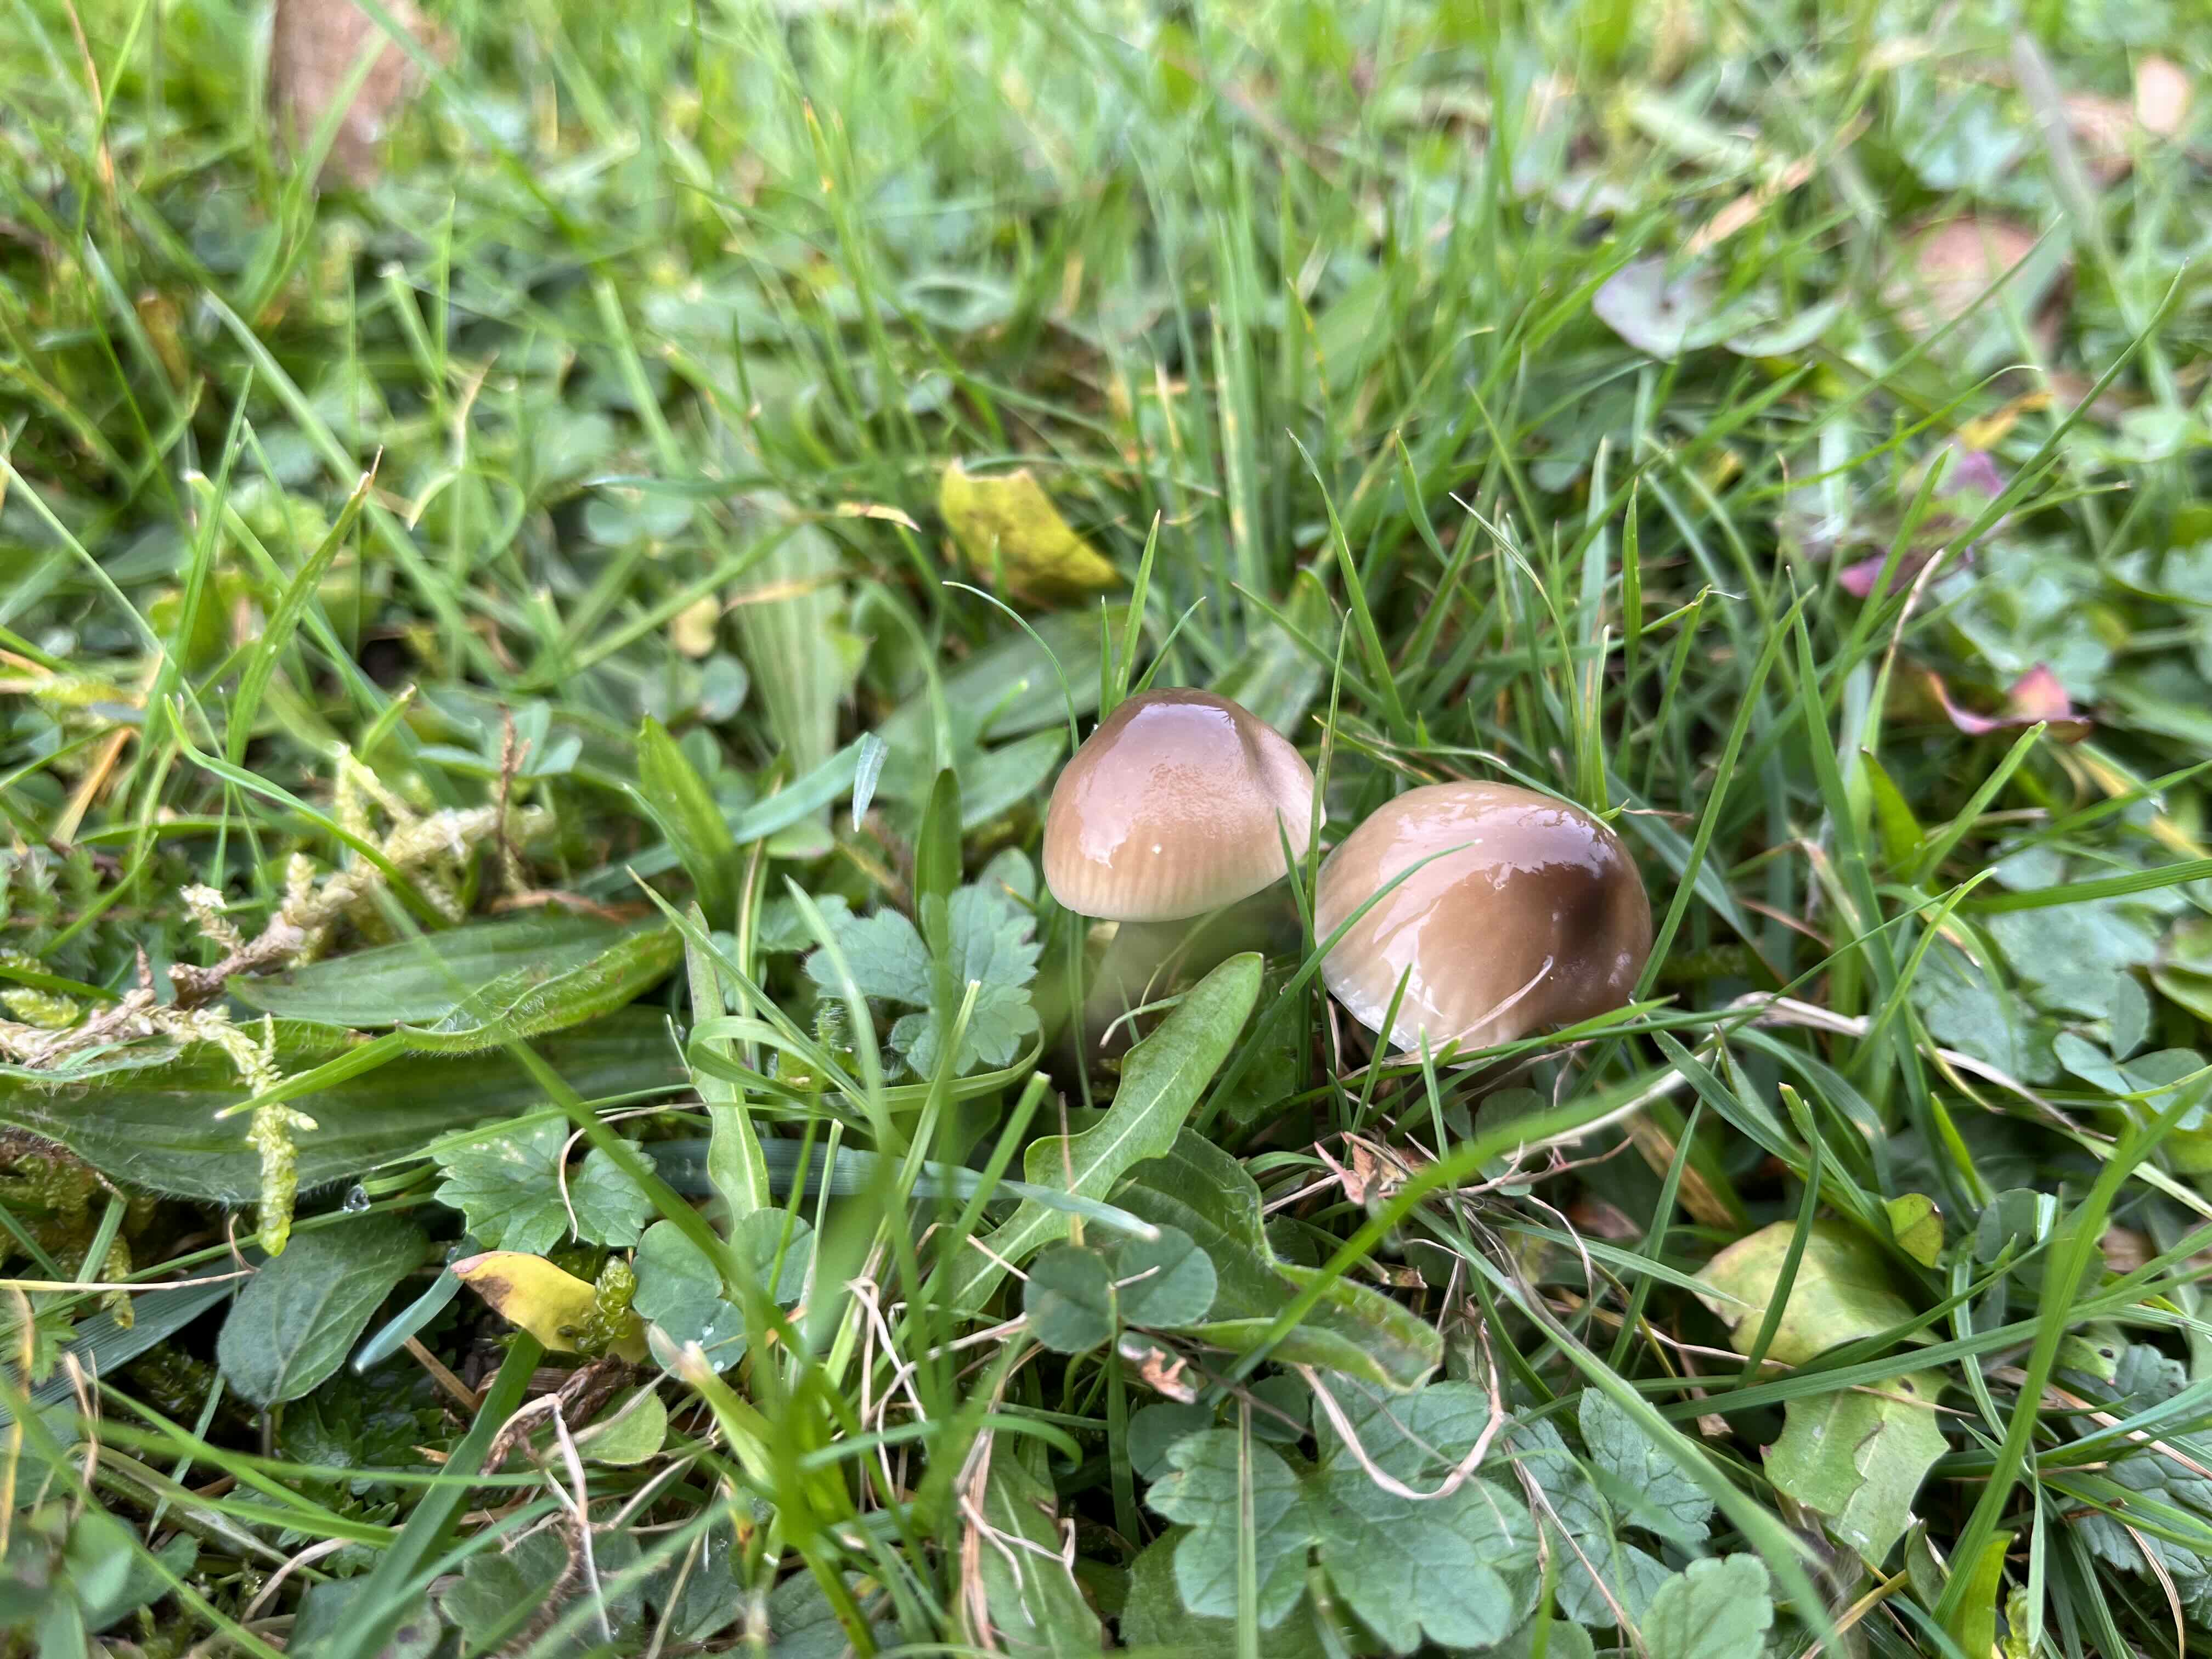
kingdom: Fungi
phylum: Basidiomycota
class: Agaricomycetes
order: Agaricales
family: Hygrophoraceae
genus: Gliophorus
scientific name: Gliophorus irrigatus
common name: slimet vokshat
